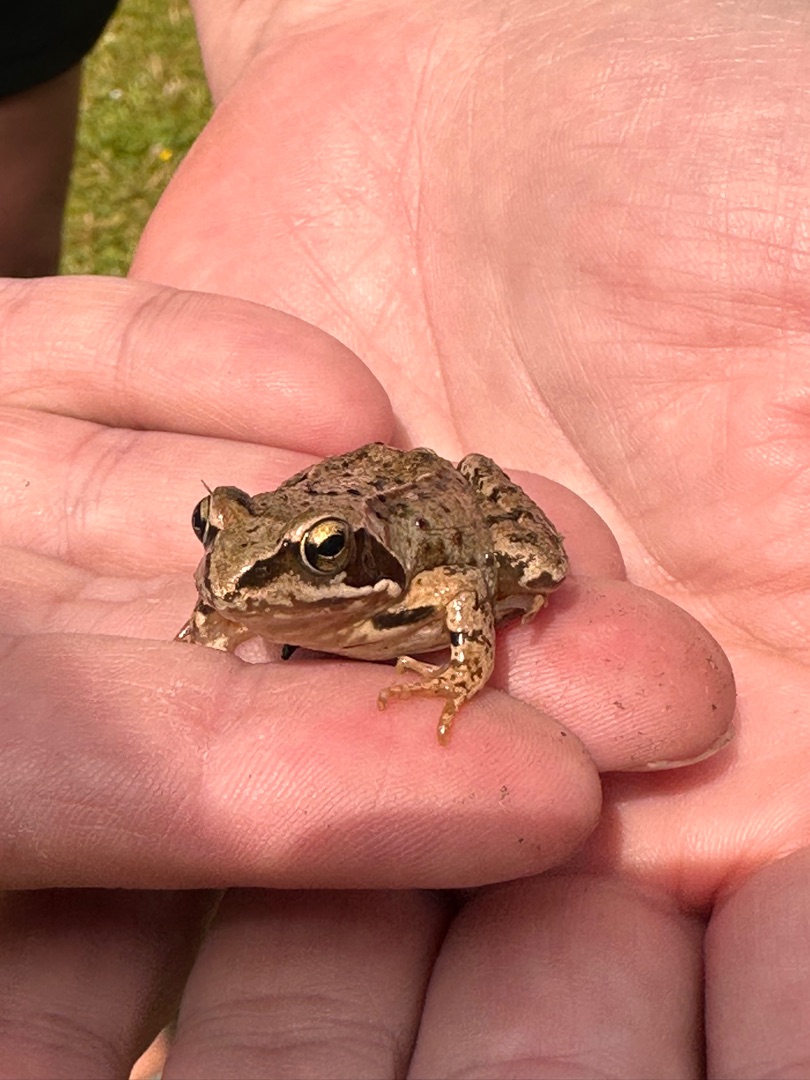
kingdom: Animalia
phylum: Chordata
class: Amphibia
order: Anura
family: Ranidae
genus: Rana
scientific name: Rana temporaria
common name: Butsnudet frø
